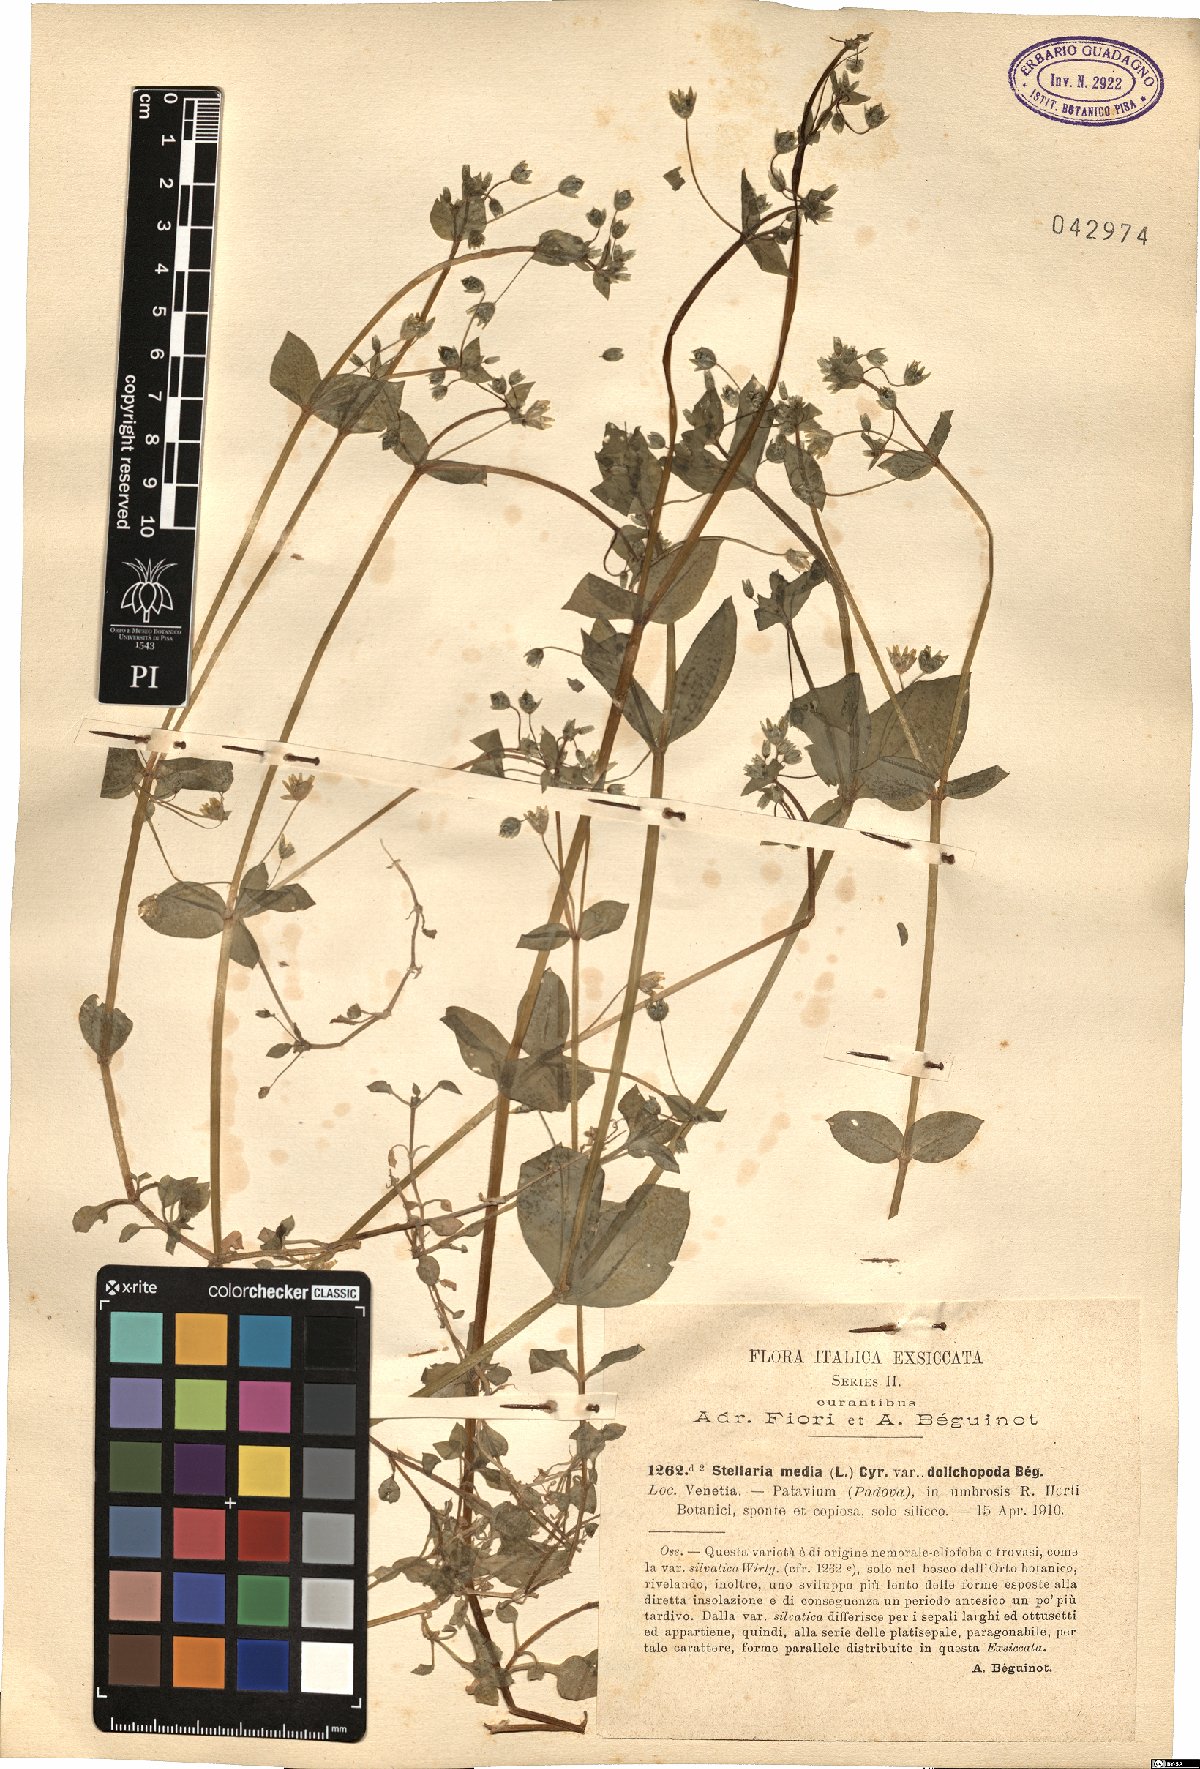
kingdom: Plantae
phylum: Tracheophyta
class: Magnoliopsida
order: Caryophyllales
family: Caryophyllaceae
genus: Stellaria
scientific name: Stellaria media
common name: Common chickweed
